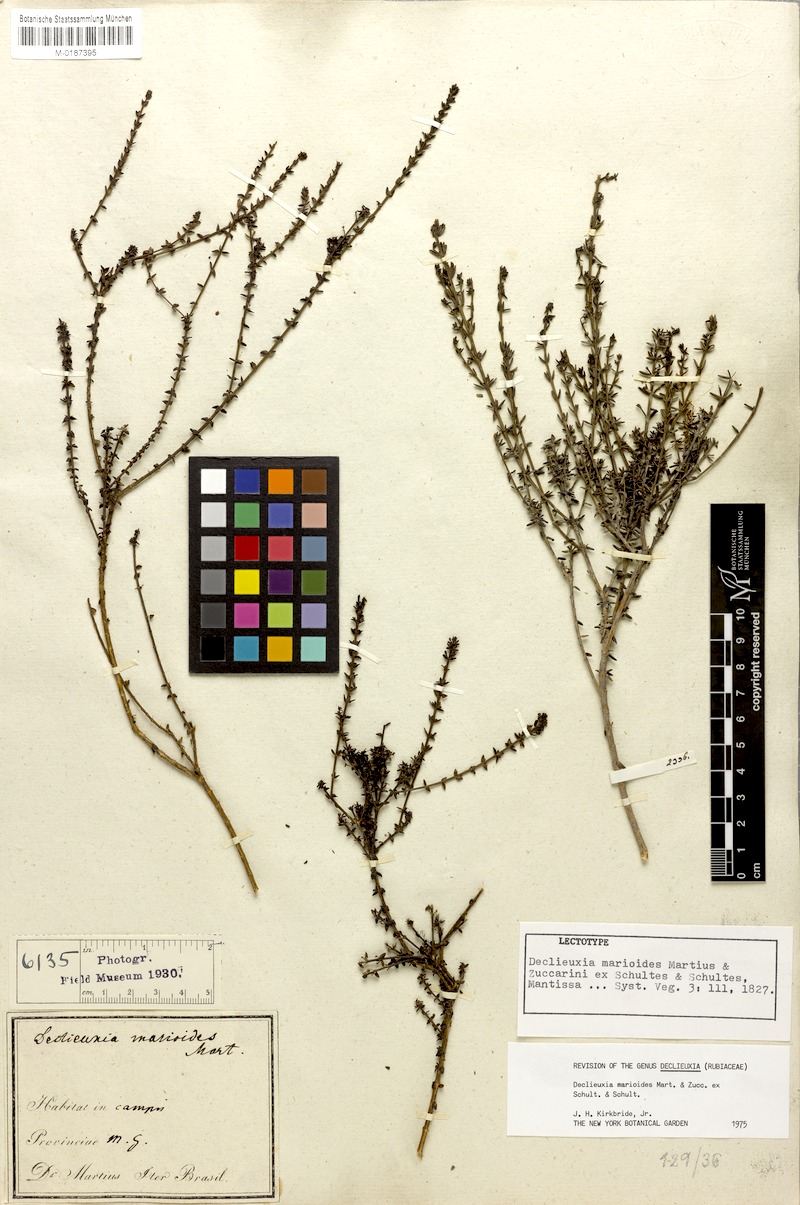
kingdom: Plantae
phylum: Tracheophyta
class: Magnoliopsida
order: Gentianales
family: Rubiaceae
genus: Declieuxia
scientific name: Declieuxia marioides
